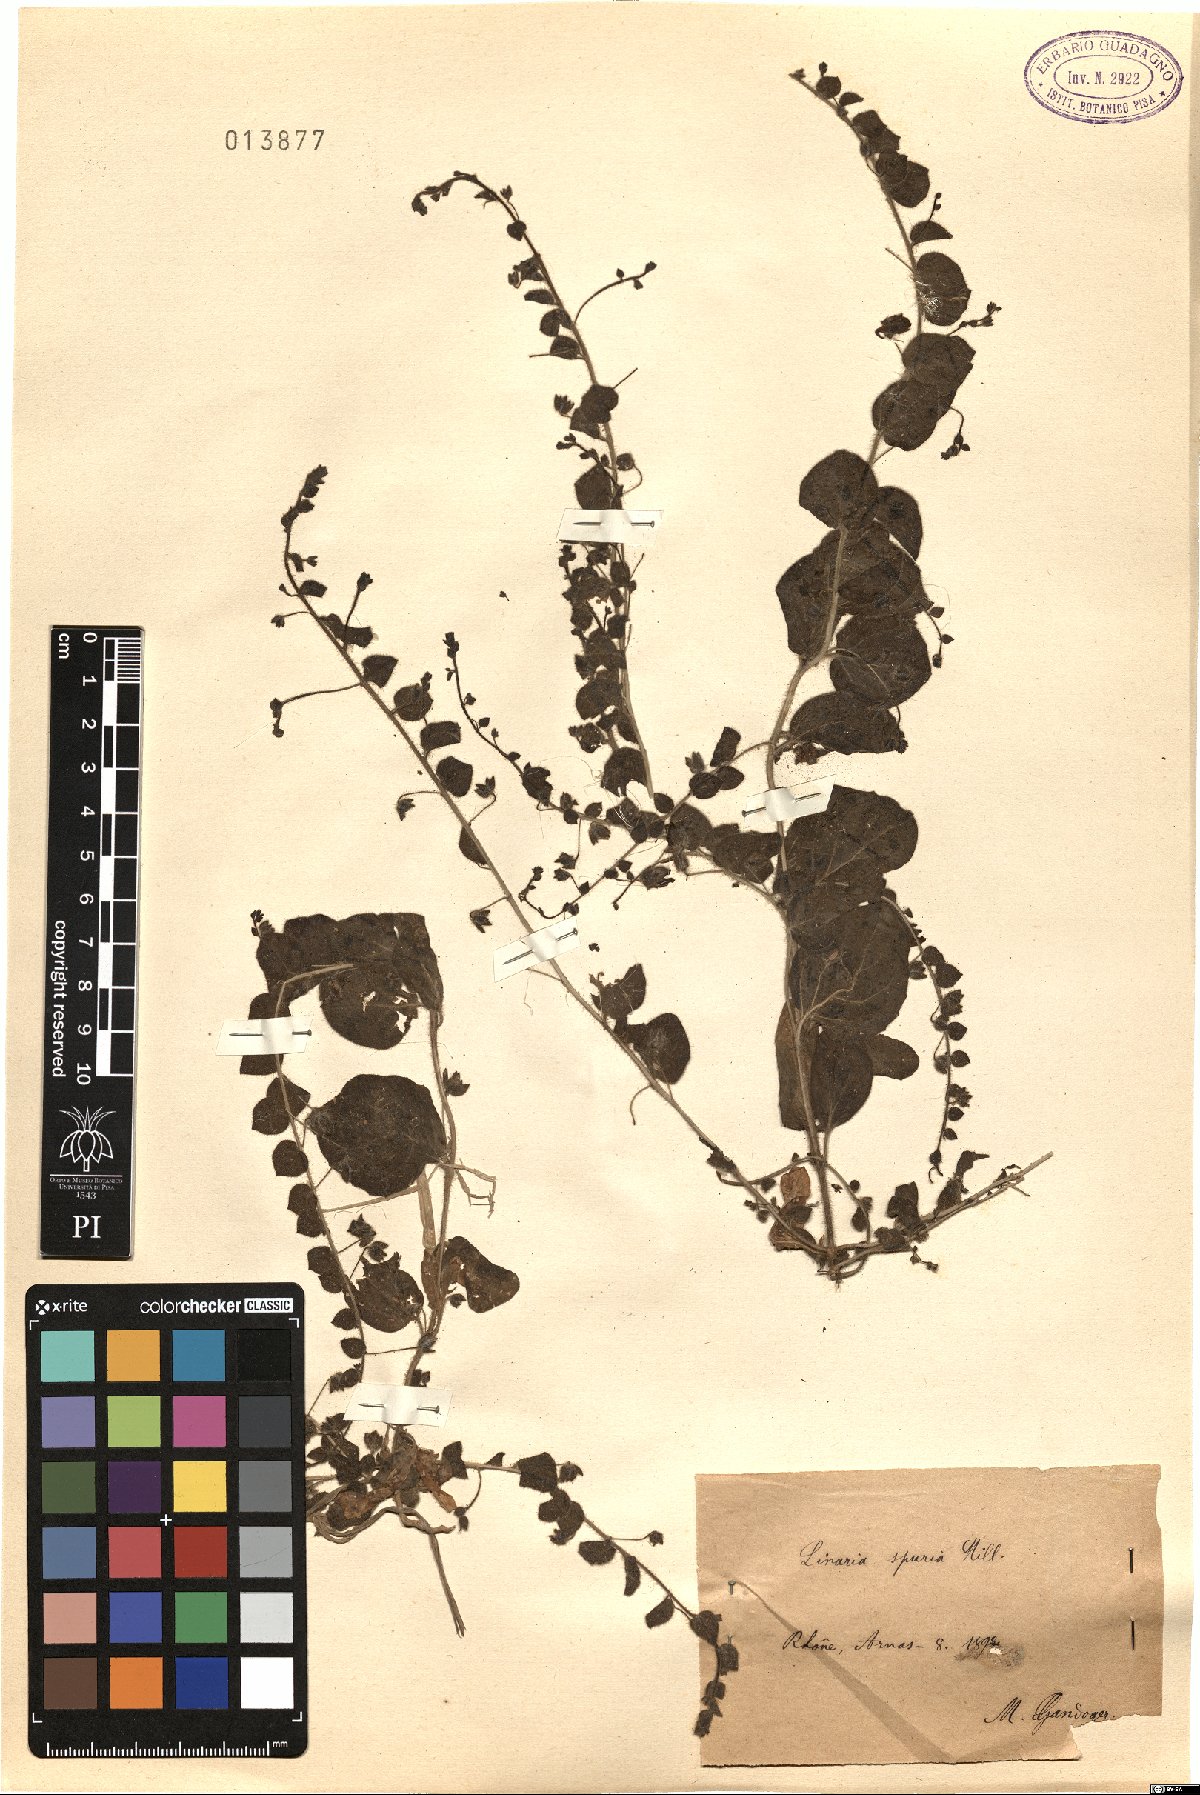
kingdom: Plantae
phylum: Tracheophyta
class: Magnoliopsida
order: Lamiales
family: Plantaginaceae
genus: Kickxia
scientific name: Kickxia spuria
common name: Round-leaved fluellen
